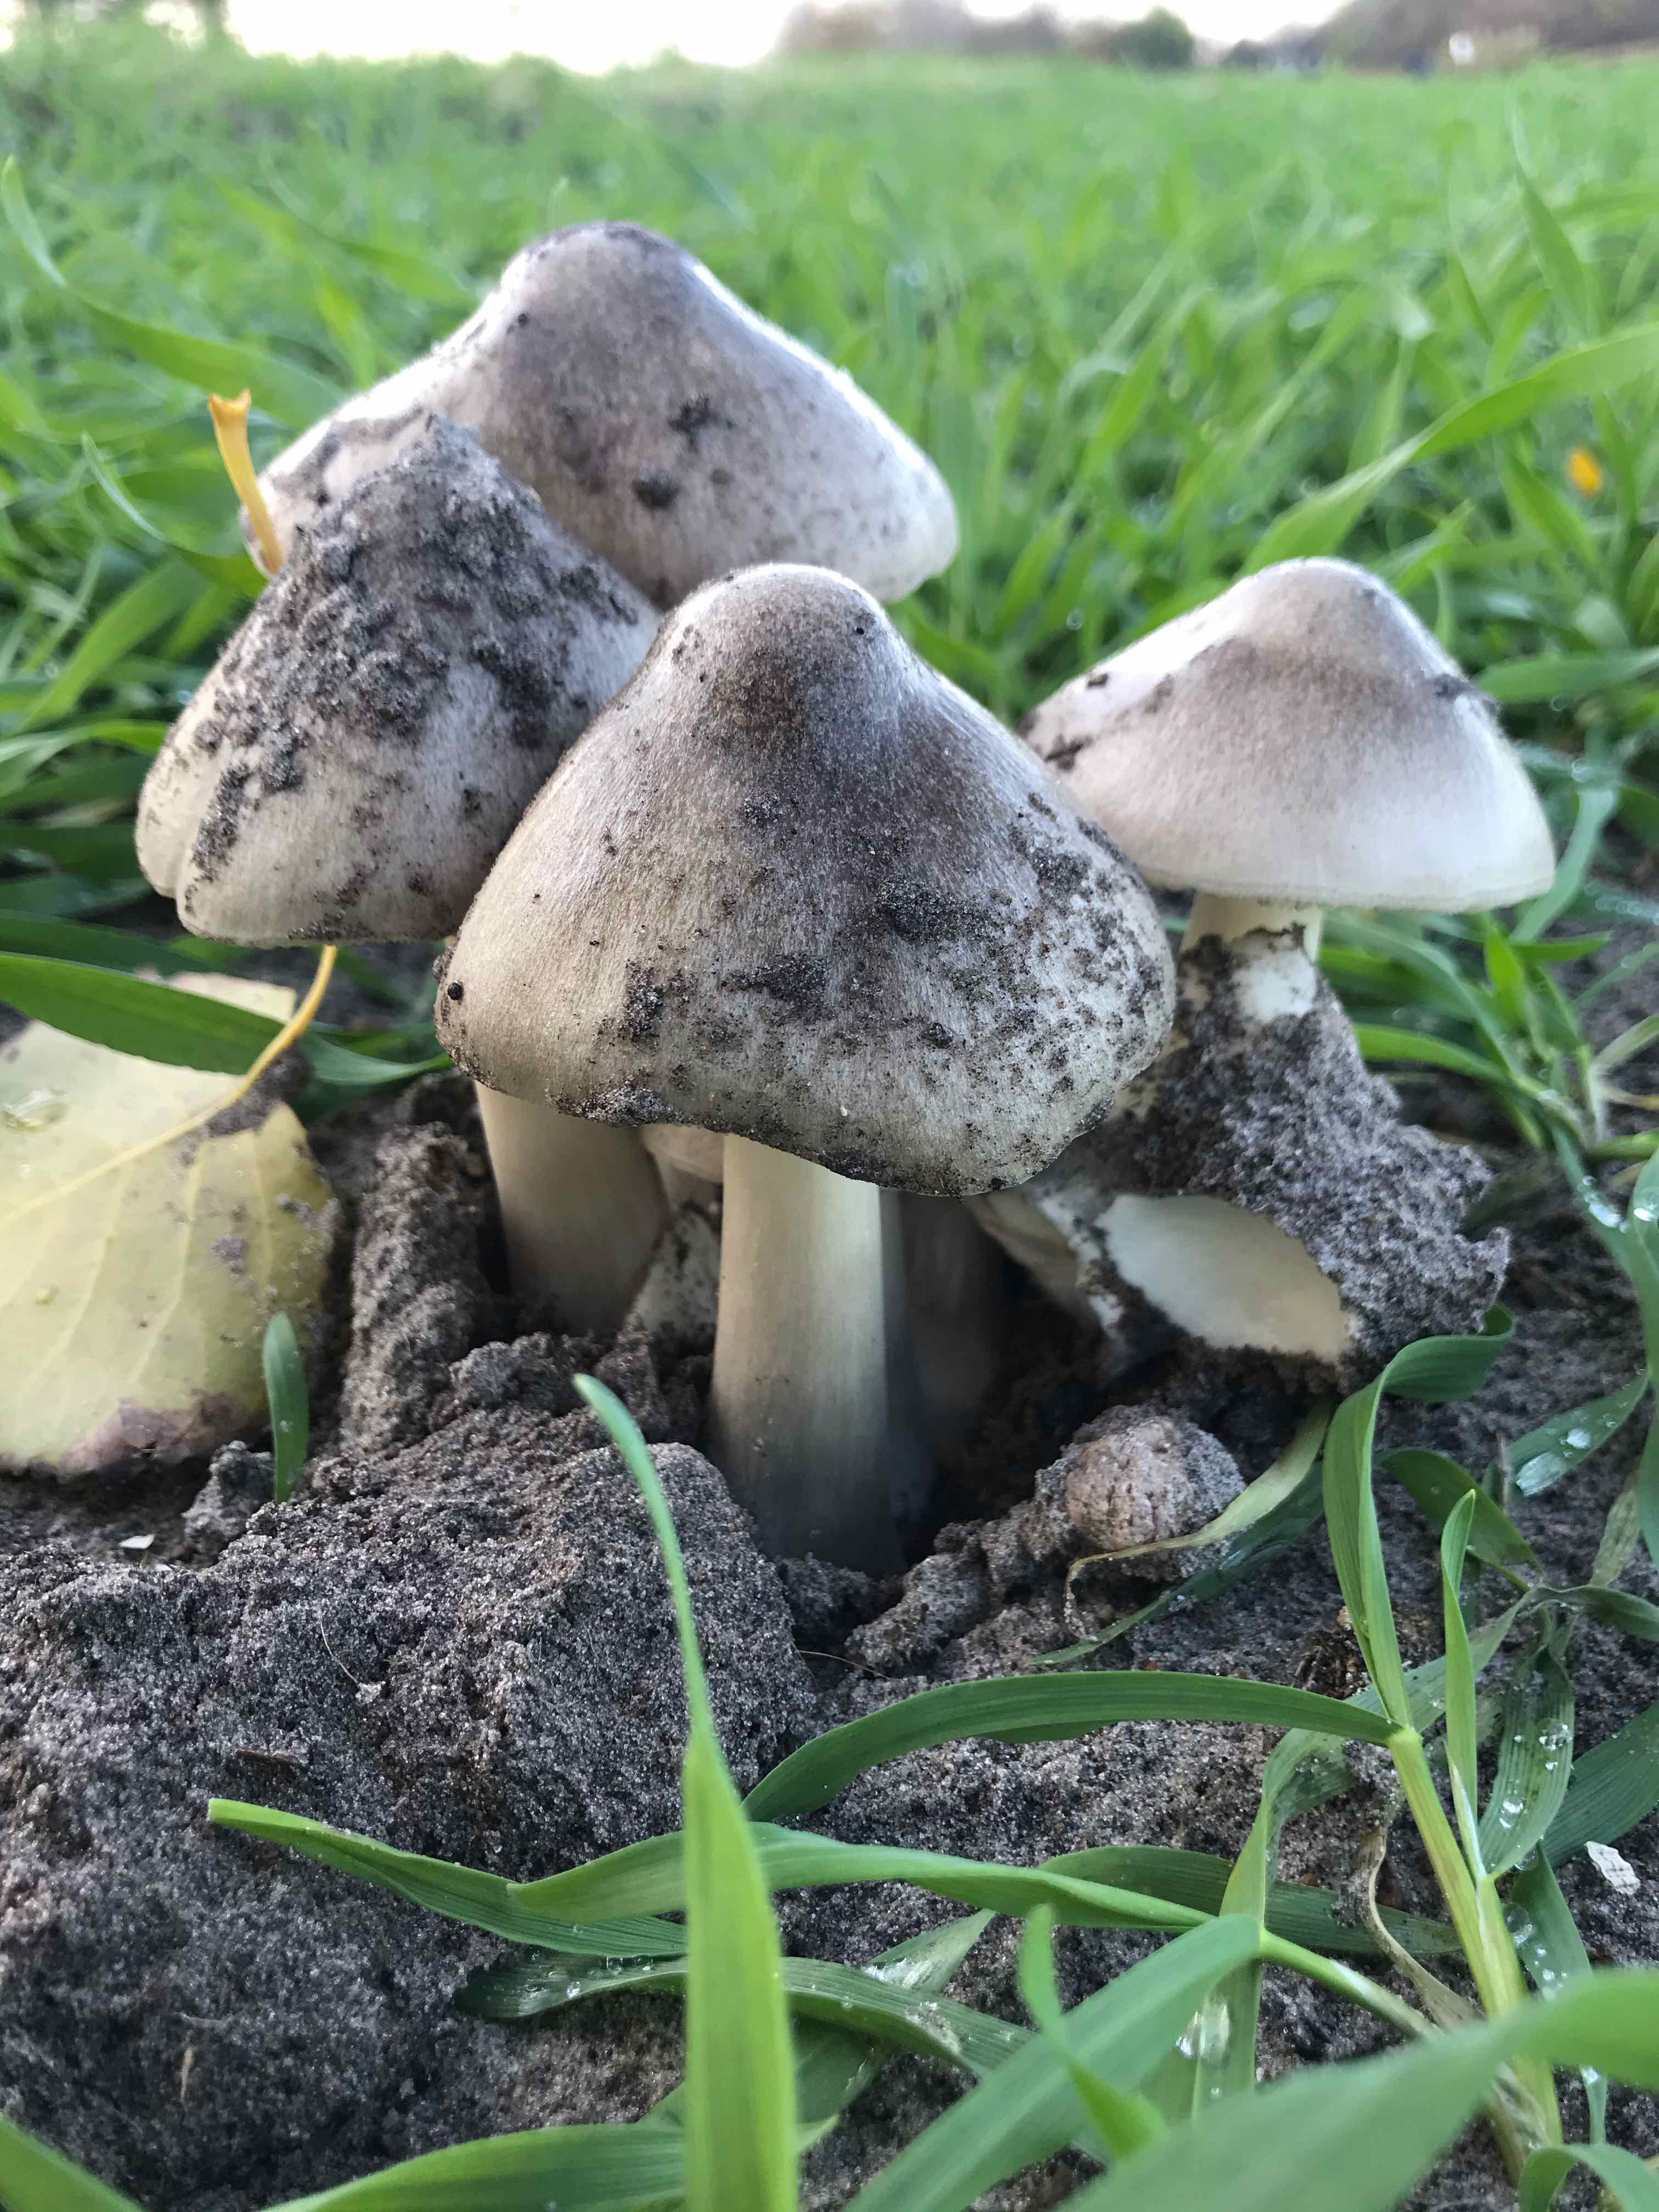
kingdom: Fungi
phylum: Basidiomycota
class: Agaricomycetes
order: Agaricales
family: Pluteaceae
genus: Volvopluteus
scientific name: Volvopluteus gloiocephalus
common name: høj posesvamp
